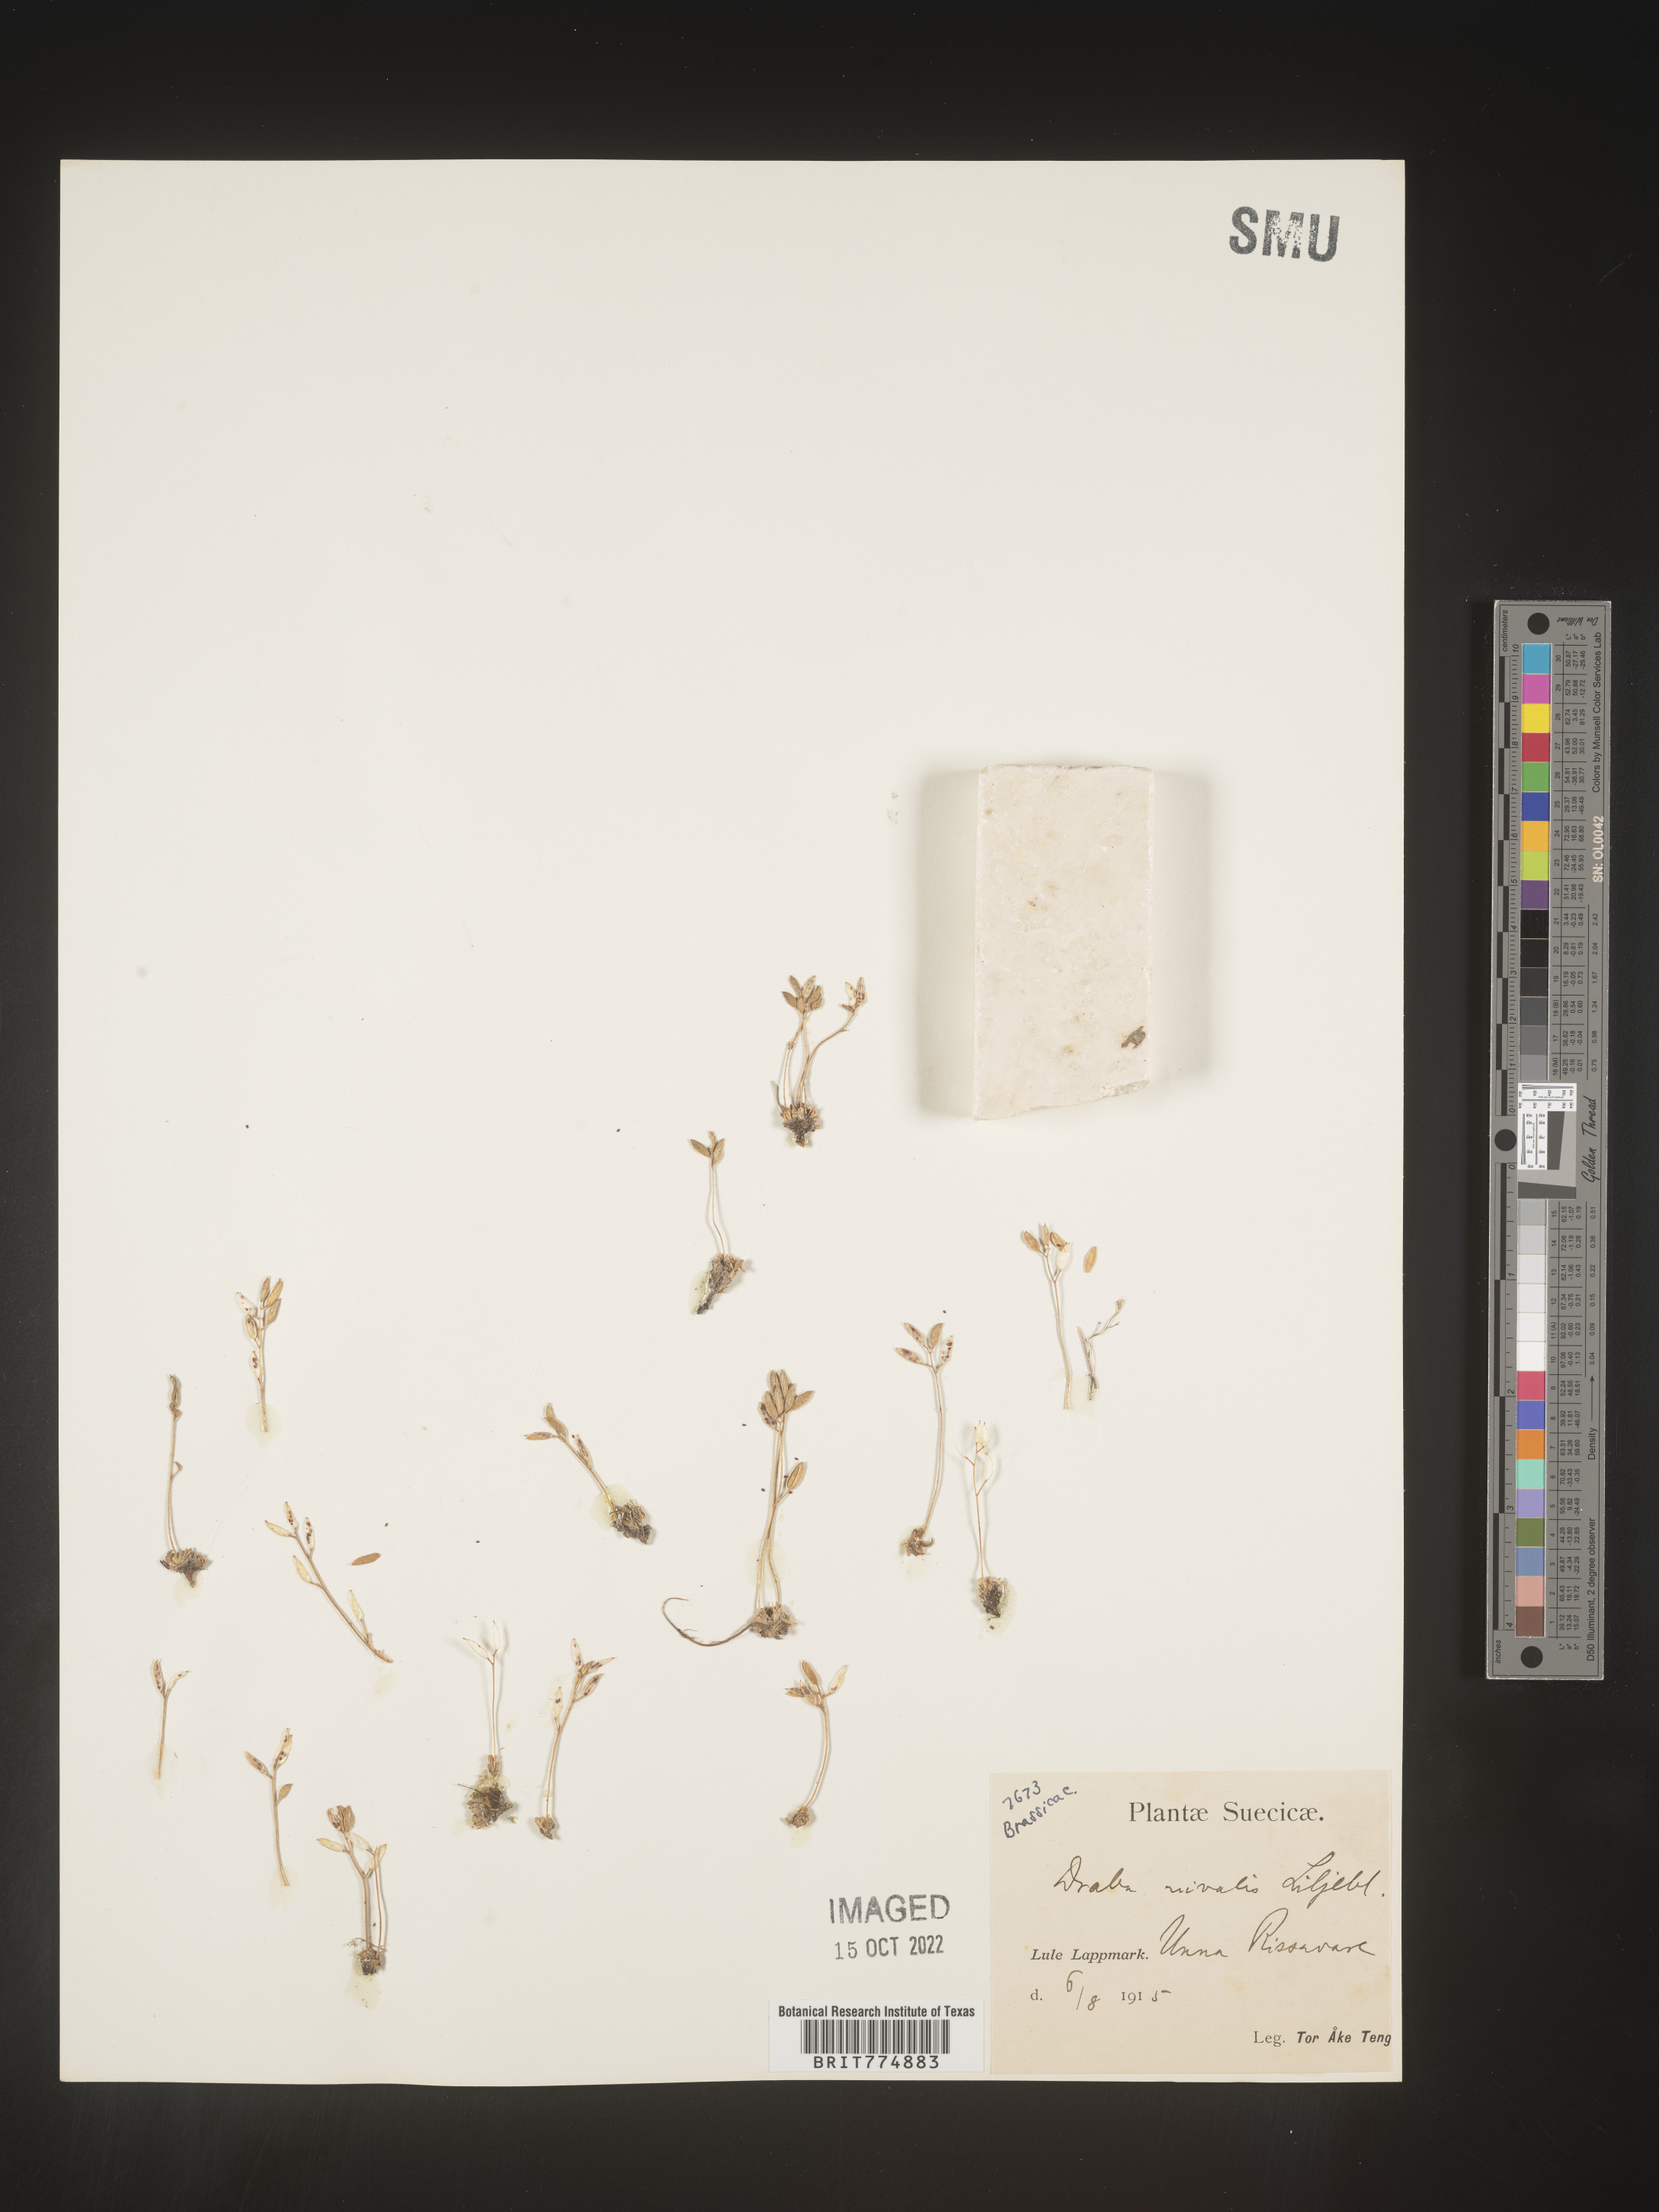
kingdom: Plantae
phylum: Tracheophyta
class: Magnoliopsida
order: Brassicales
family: Brassicaceae
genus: Draba
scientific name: Draba
